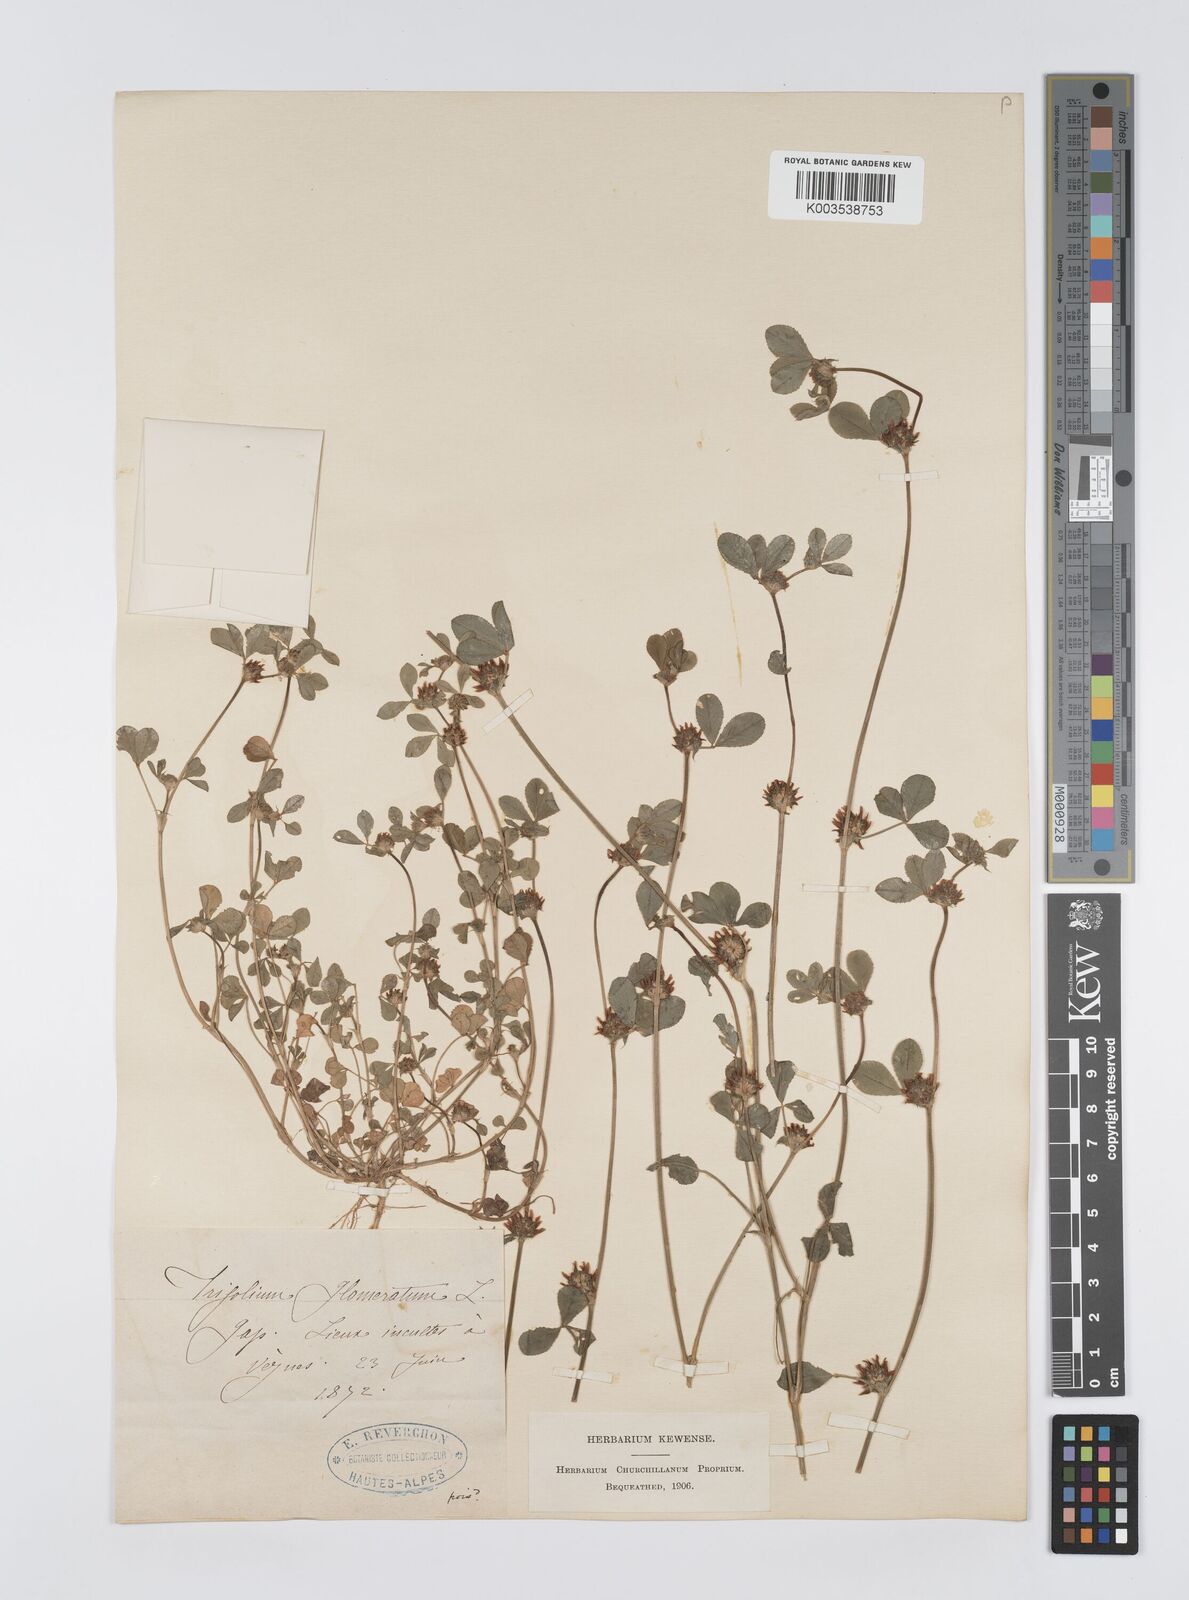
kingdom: Plantae
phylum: Tracheophyta
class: Magnoliopsida
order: Fabales
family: Fabaceae
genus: Trifolium
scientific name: Trifolium glomeratum
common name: Clustered clover
